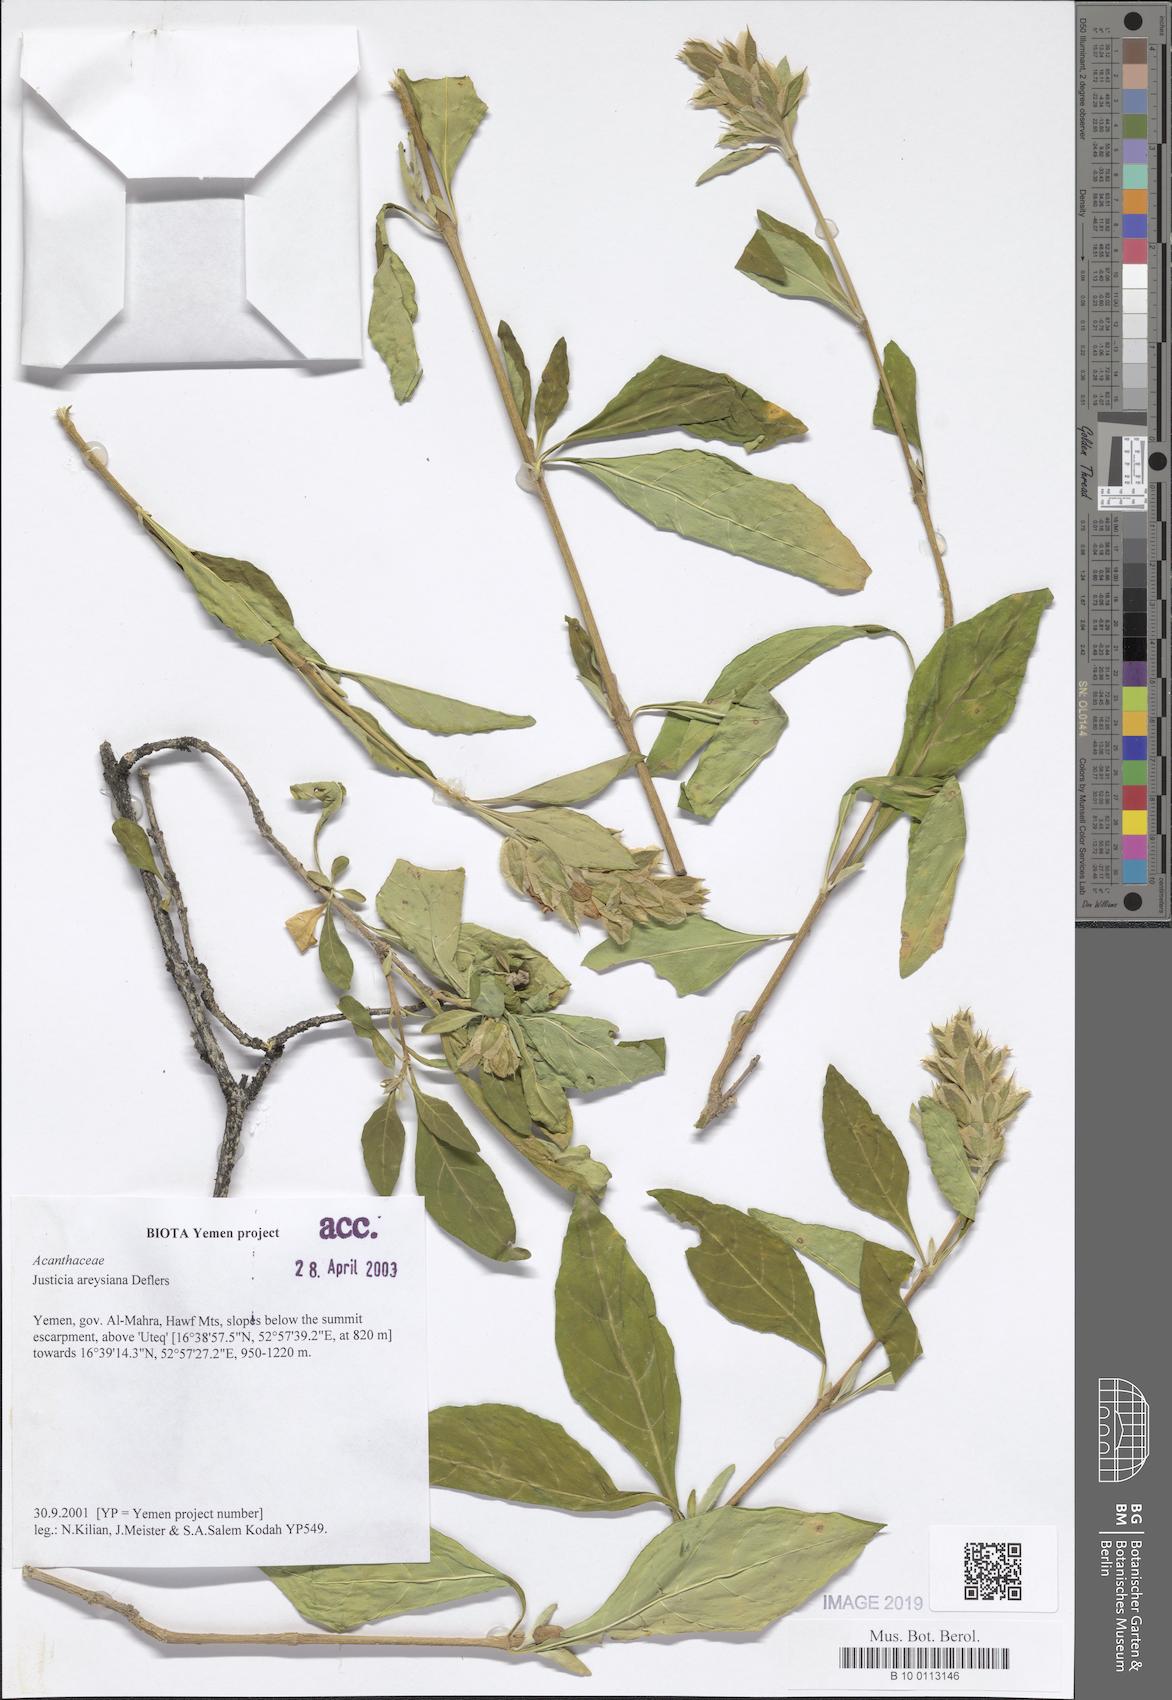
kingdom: Plantae
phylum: Tracheophyta
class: Magnoliopsida
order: Lamiales
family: Acanthaceae
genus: Justicia
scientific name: Justicia areysiana
